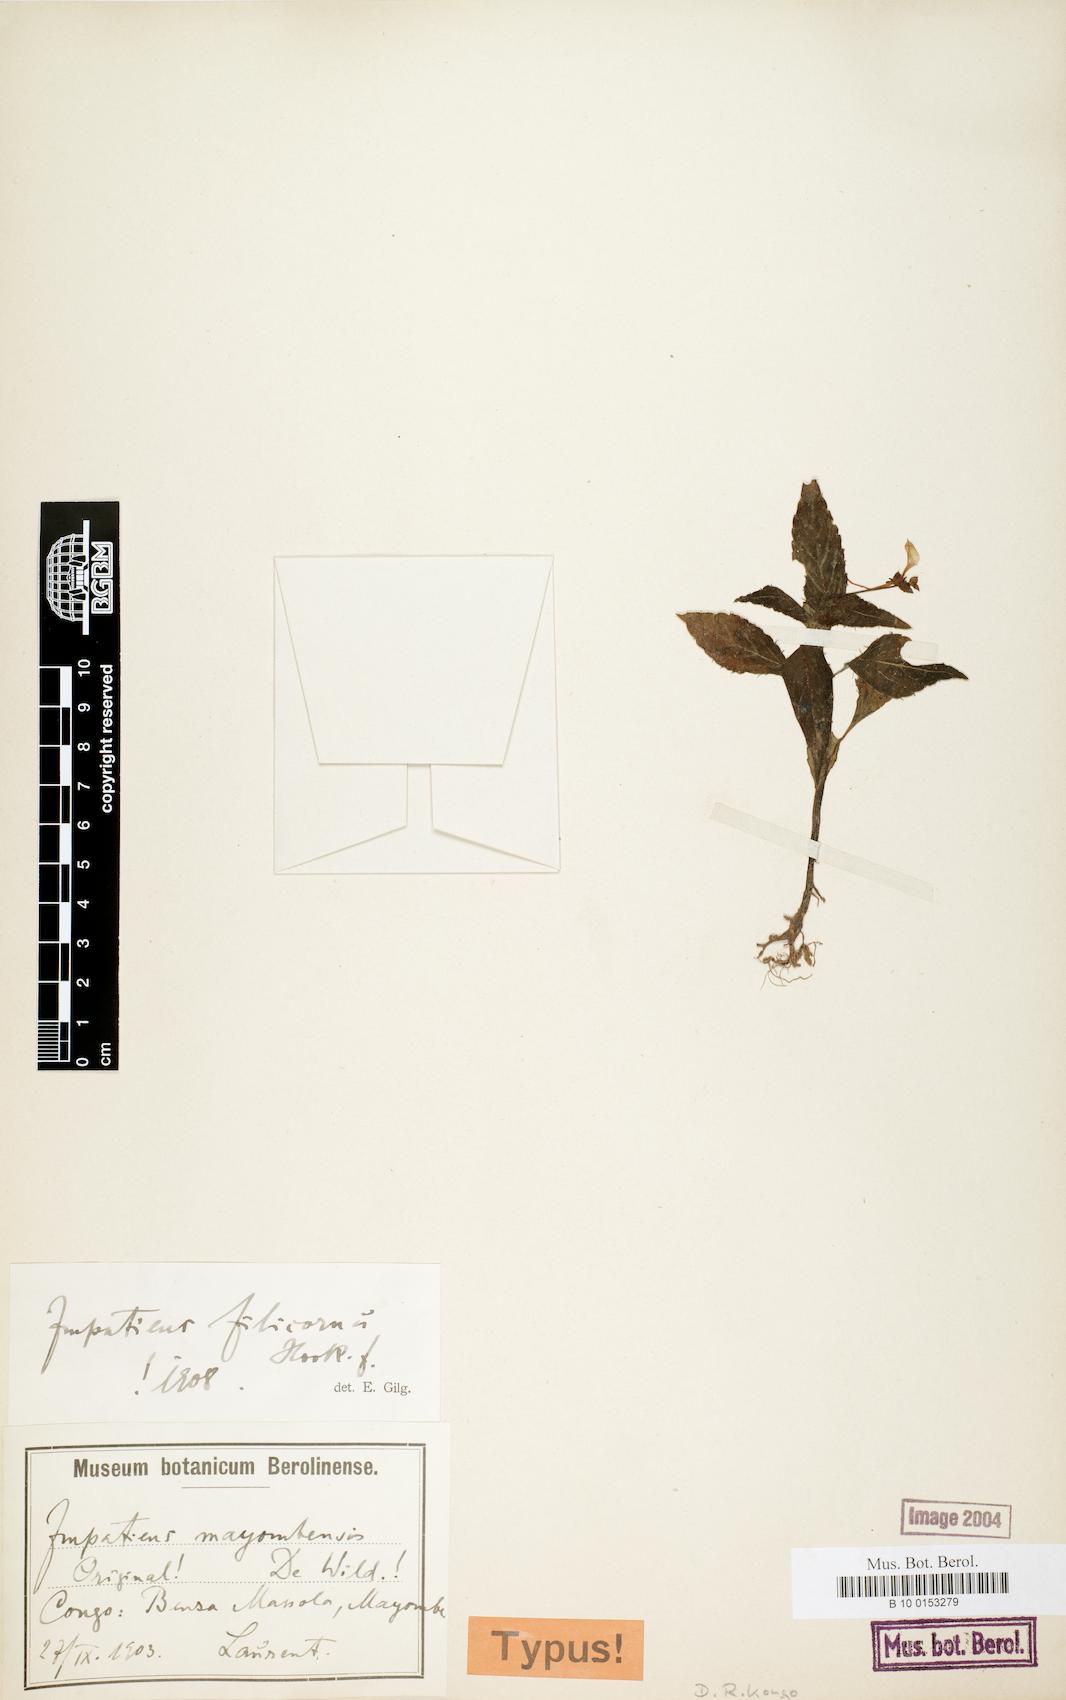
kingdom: Plantae
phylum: Tracheophyta
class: Magnoliopsida
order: Ericales
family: Balsaminaceae
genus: Impatiens
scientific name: Impatiens filicornu
